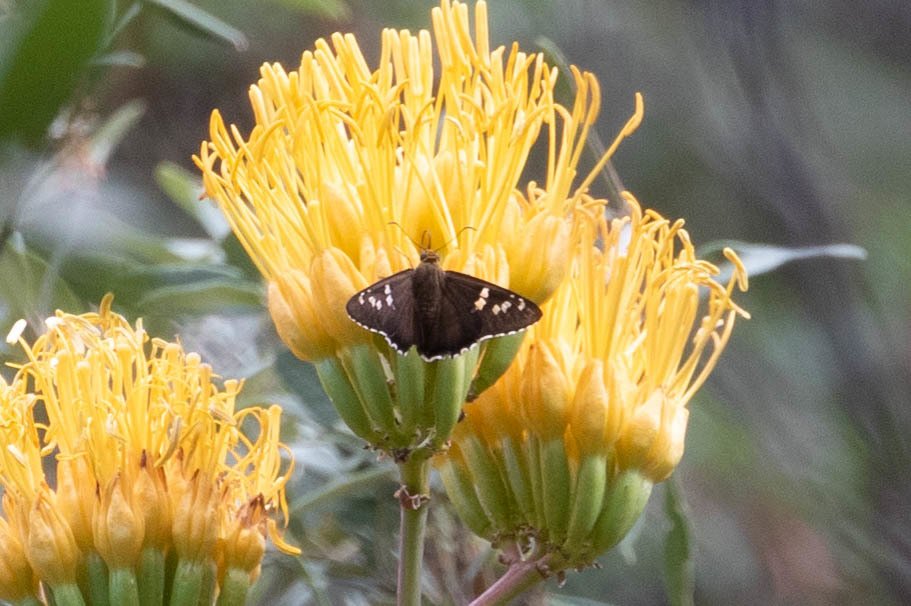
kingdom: Animalia
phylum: Arthropoda
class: Insecta
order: Lepidoptera
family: Hesperiidae
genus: Pyrrhopyge
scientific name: Pyrrhopyge araxes
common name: Dull Firetip
